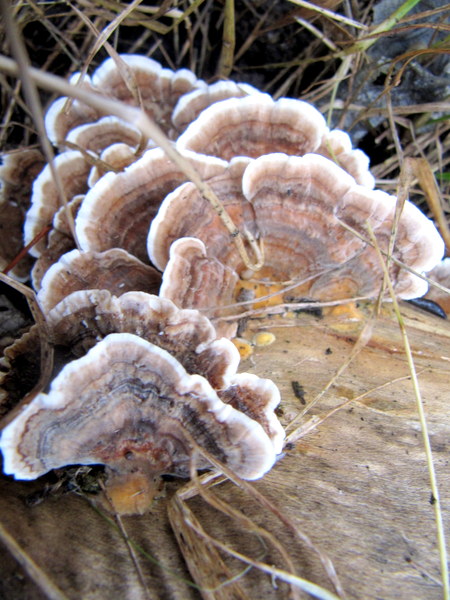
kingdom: Fungi
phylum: Basidiomycota
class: Agaricomycetes
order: Polyporales
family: Polyporaceae
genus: Trametes
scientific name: Trametes versicolor
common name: broget læderporesvamp
